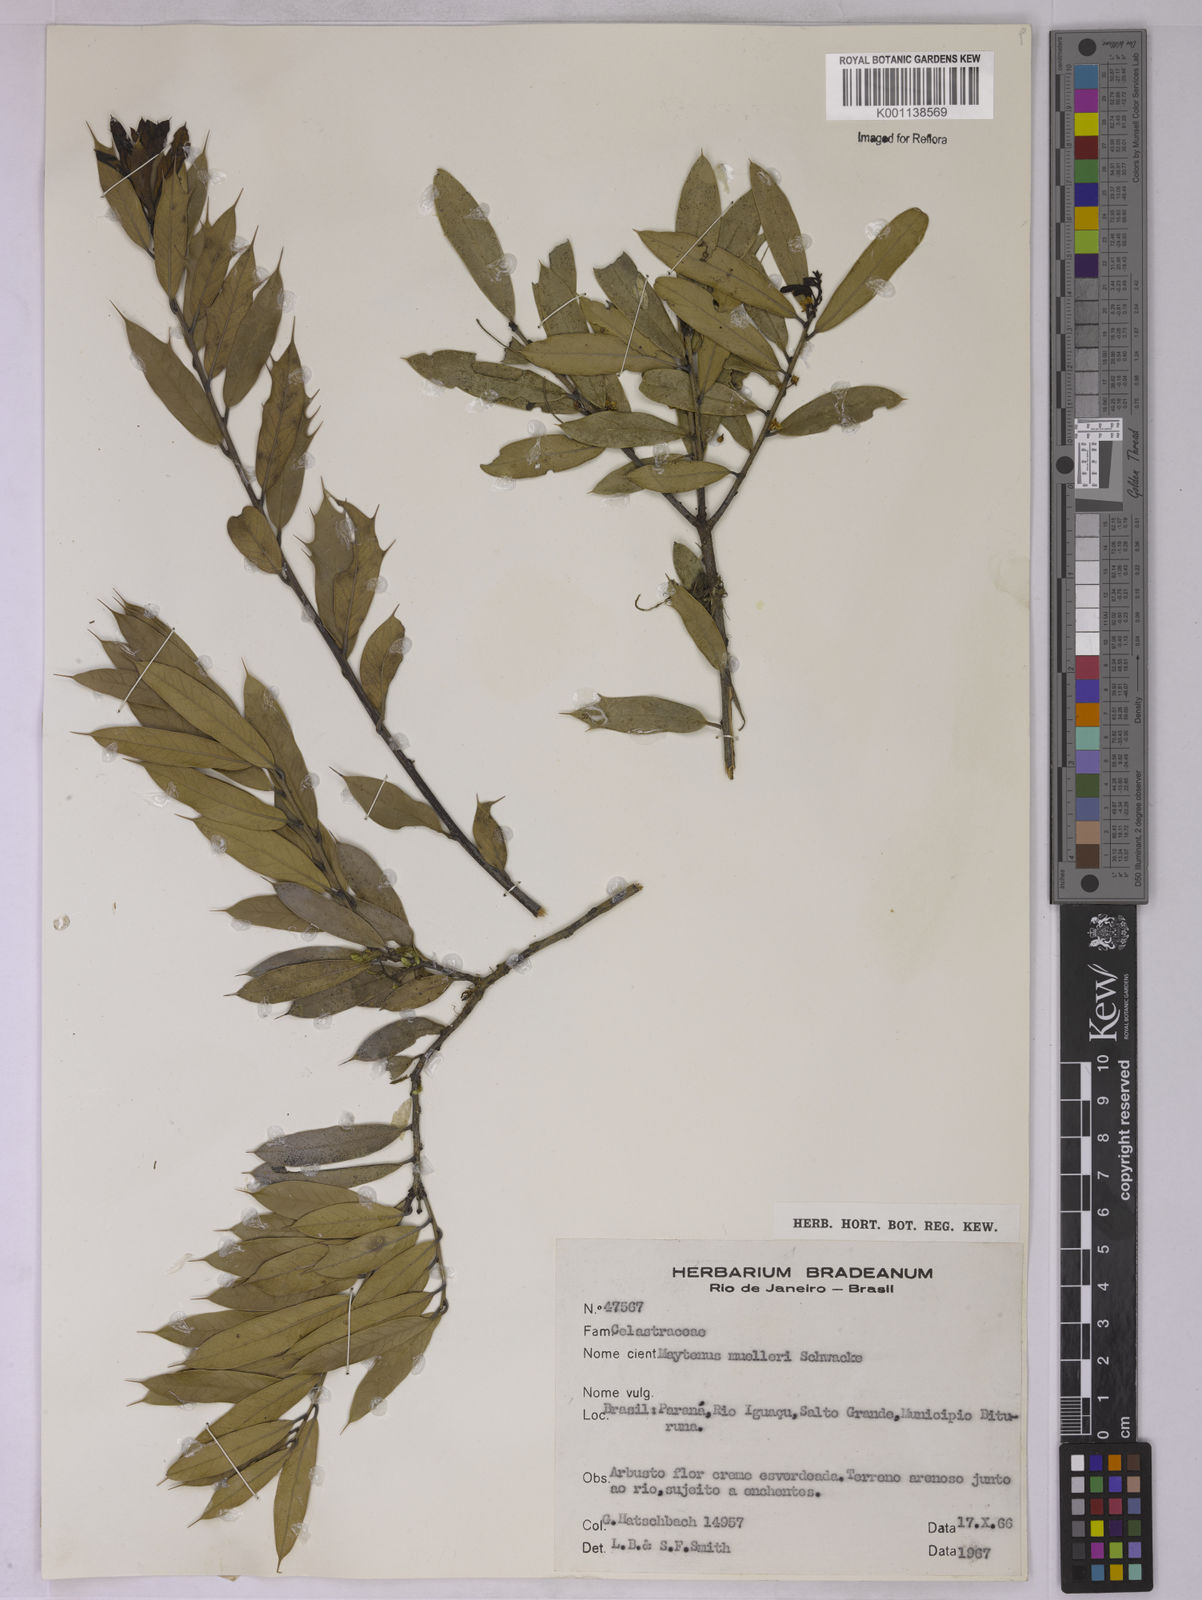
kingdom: Plantae
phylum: Tracheophyta
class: Magnoliopsida
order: Celastrales
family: Celastraceae
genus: Monteverdia
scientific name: Monteverdia ilicifolia
